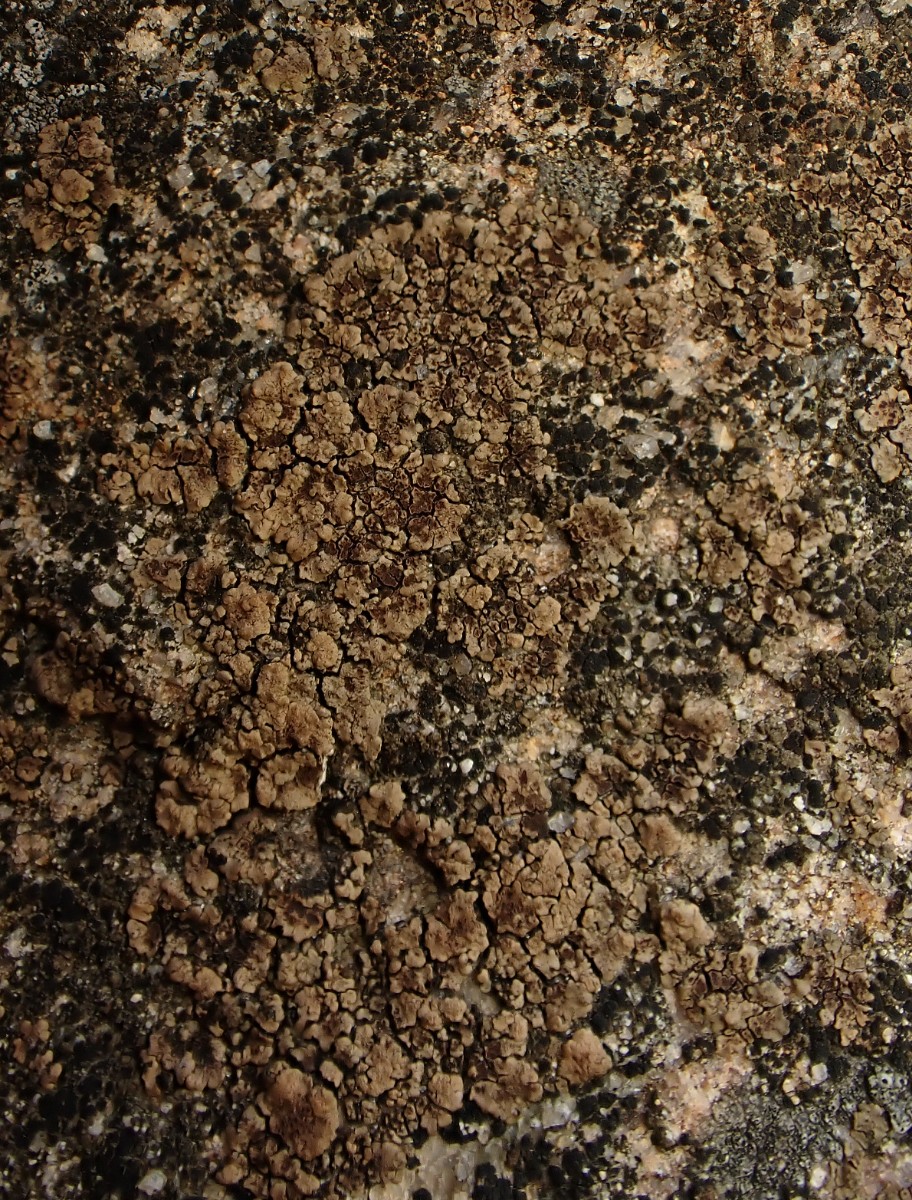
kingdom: Fungi
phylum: Ascomycota
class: Lecanoromycetes
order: Acarosporales
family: Acarosporaceae
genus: Acarospora
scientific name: Acarospora fuscata
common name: brun småsporelav
